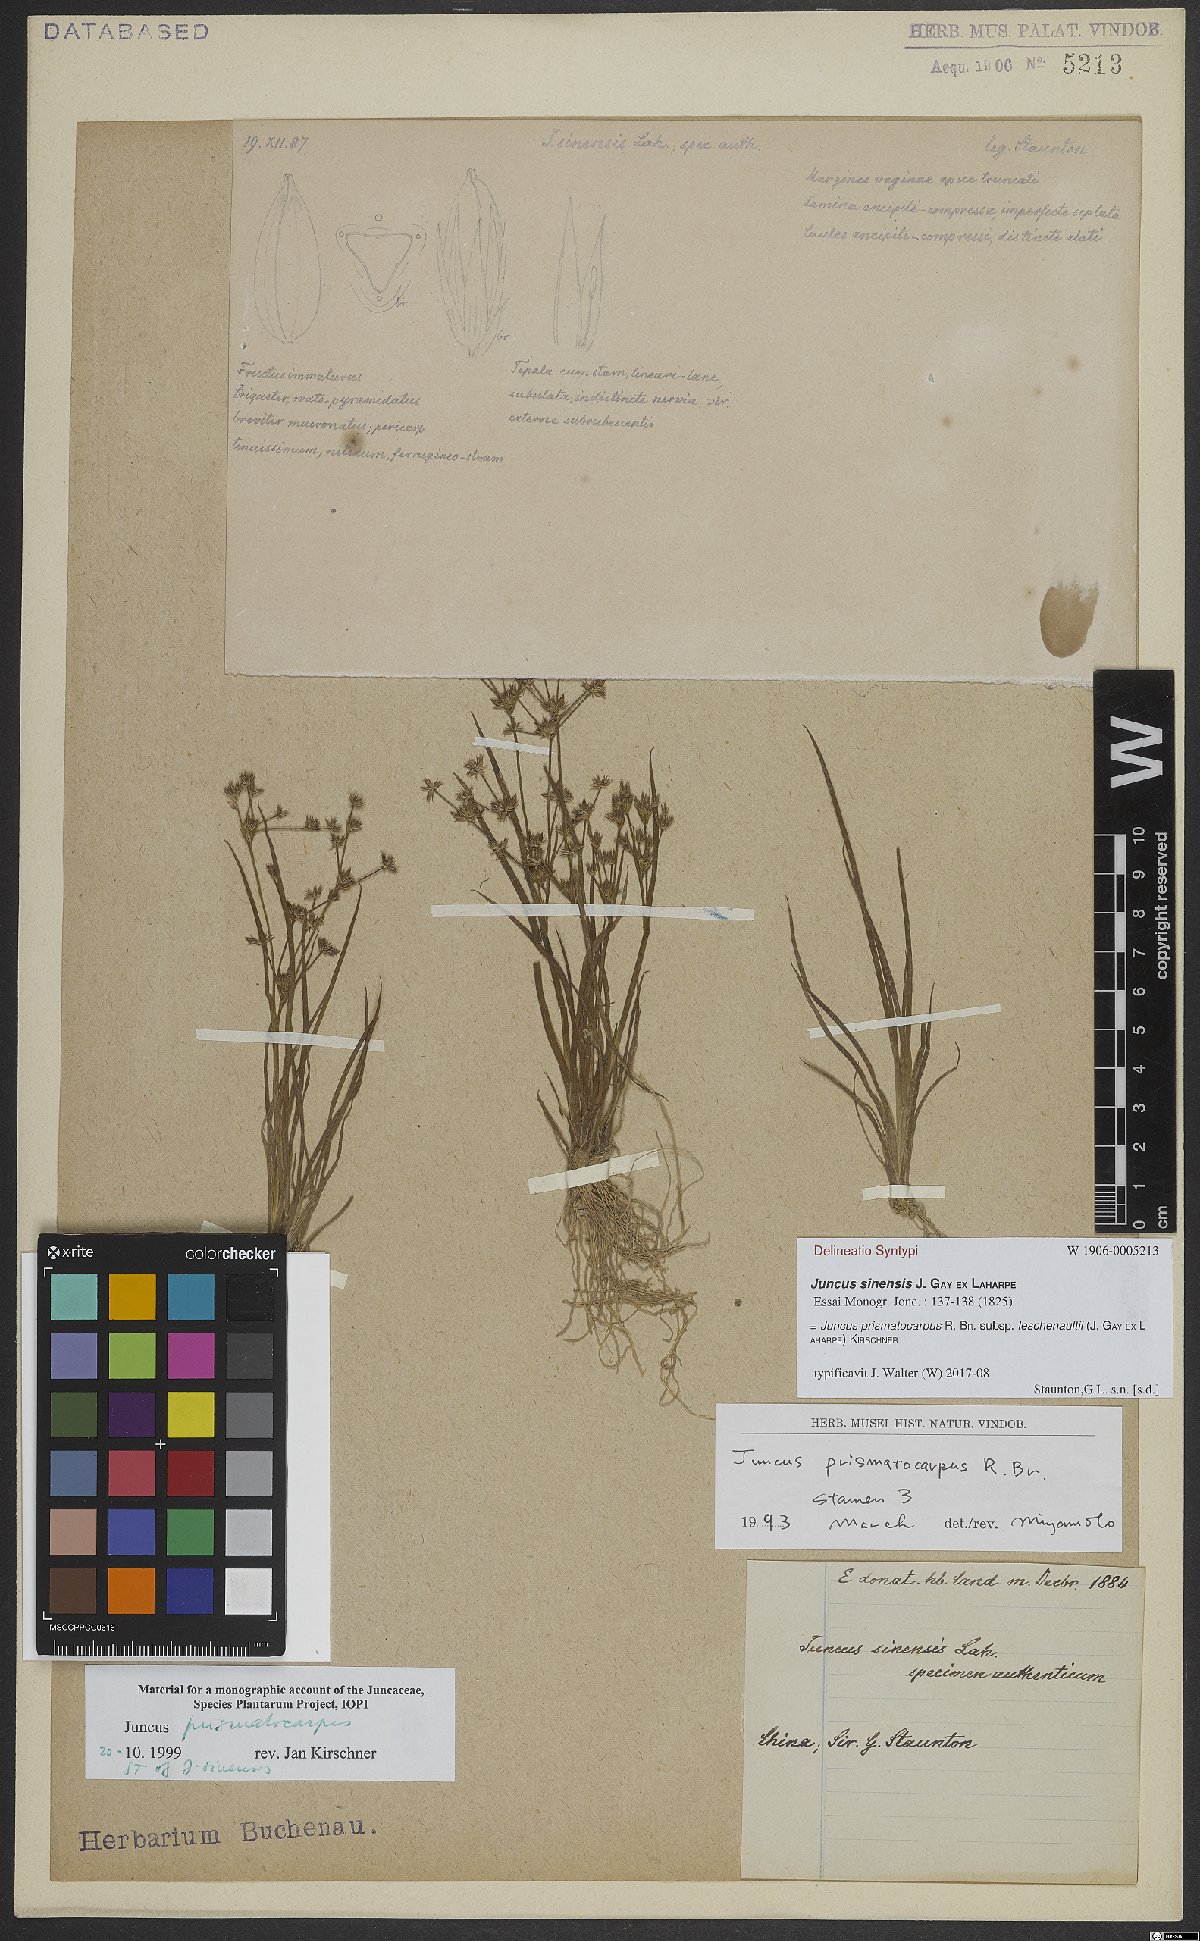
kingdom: Plantae
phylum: Tracheophyta
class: Liliopsida
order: Poales
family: Juncaceae
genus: Juncus
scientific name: Juncus prismatocarpus
